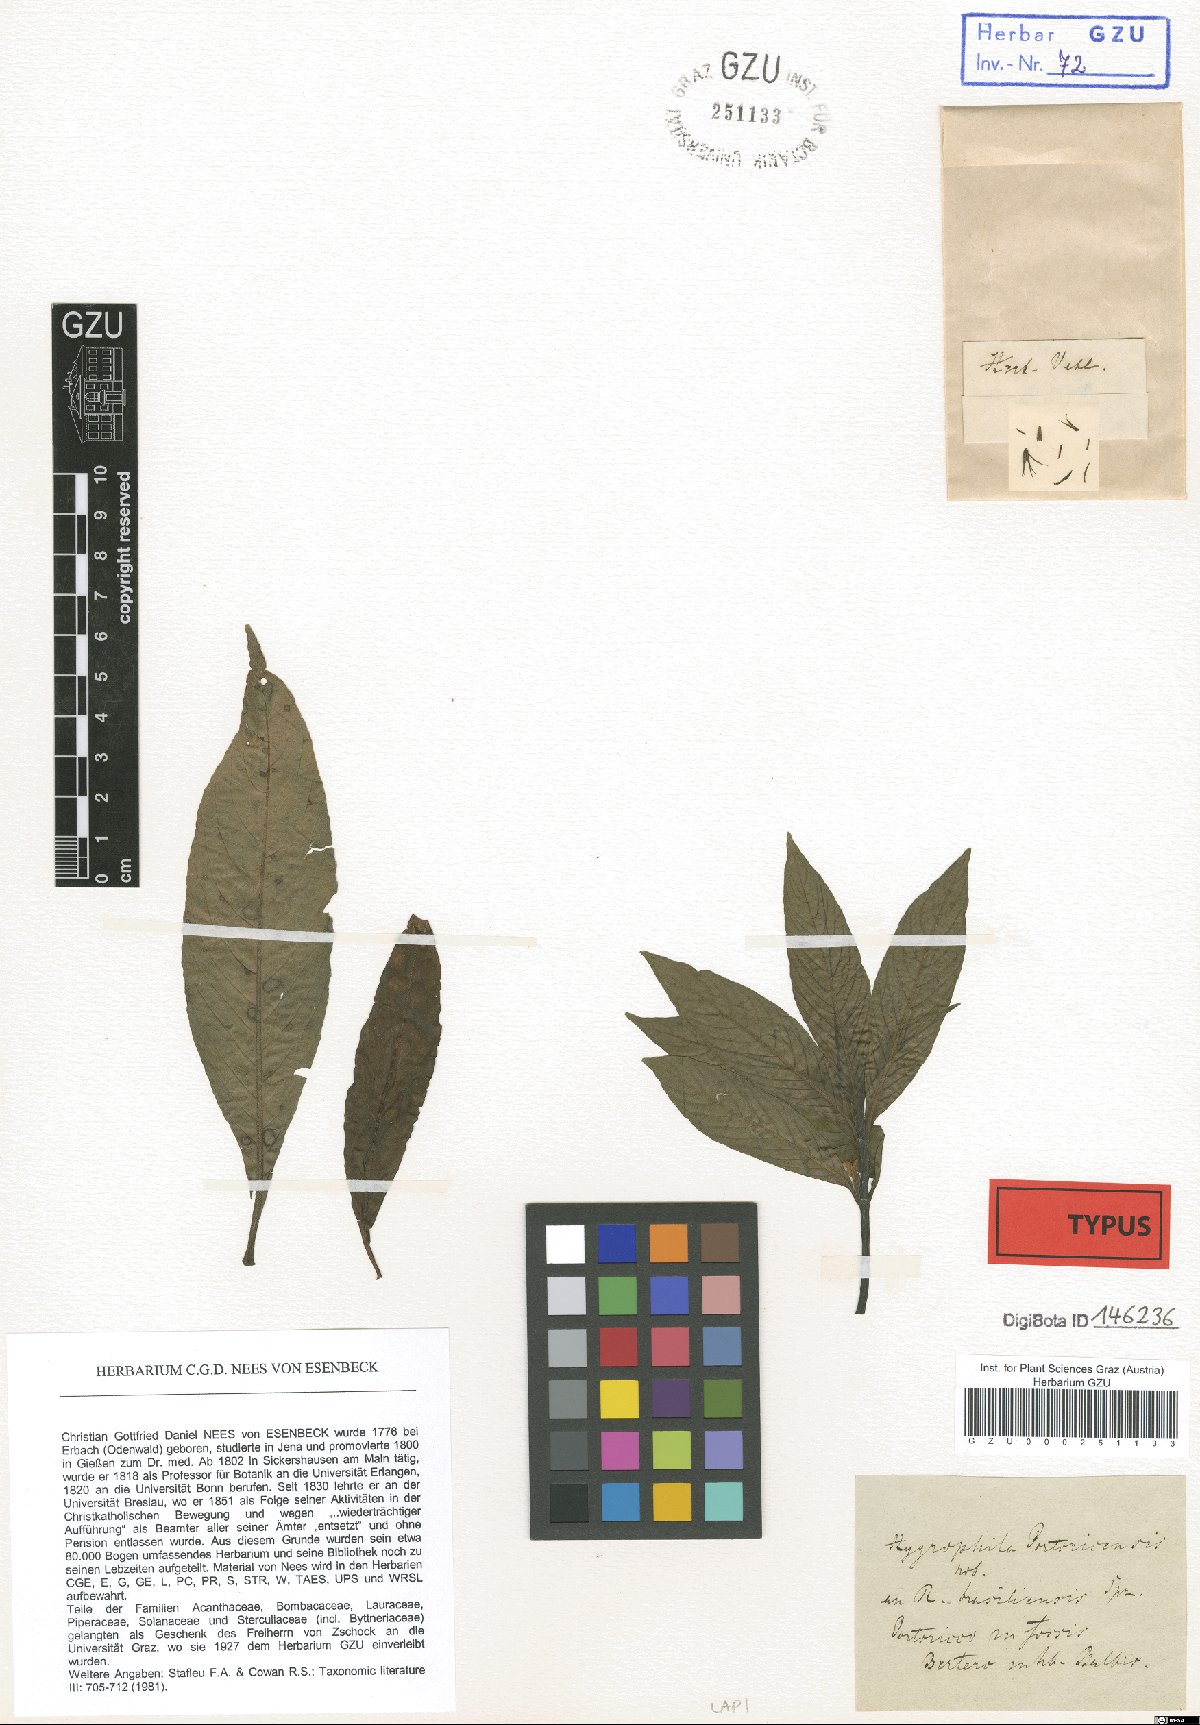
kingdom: Plantae
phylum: Tracheophyta
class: Magnoliopsida
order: Lamiales
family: Acanthaceae
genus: Hygrophila
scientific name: Hygrophila costata
